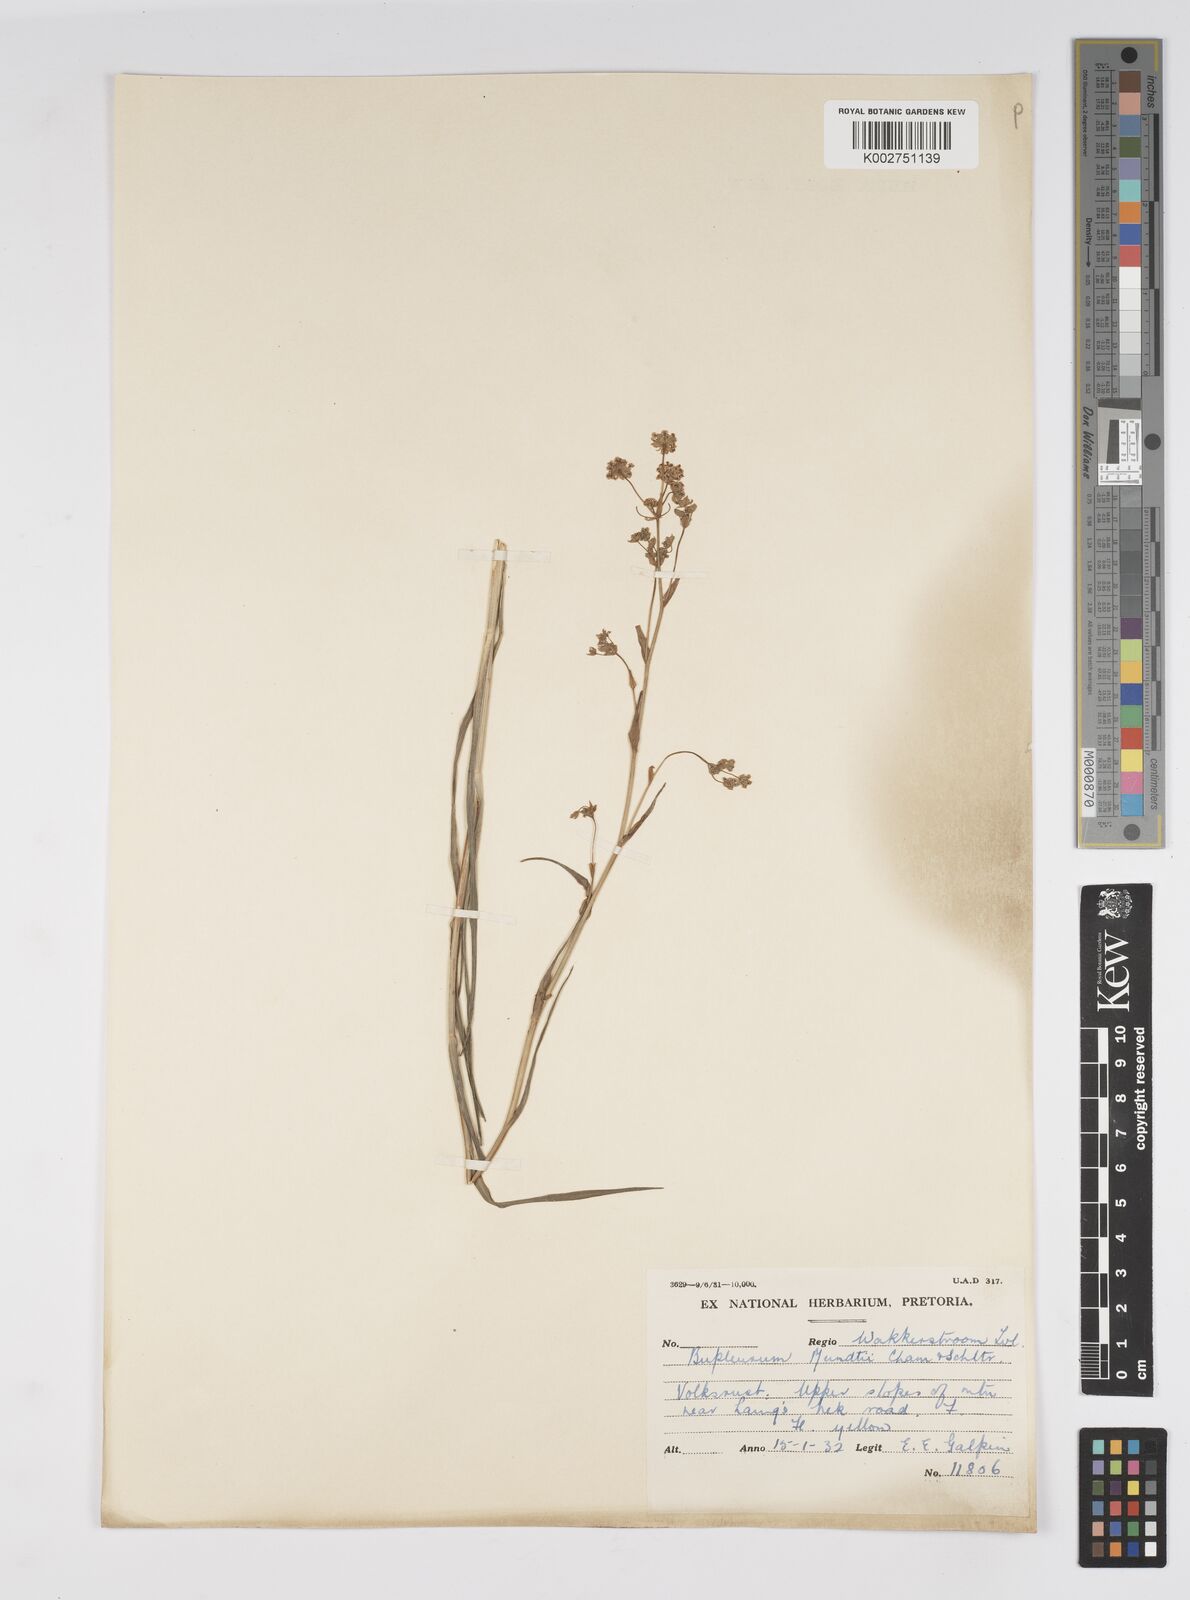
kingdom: Plantae
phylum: Tracheophyta
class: Magnoliopsida
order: Apiales
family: Apiaceae
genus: Bupleurum
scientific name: Bupleurum mundii
